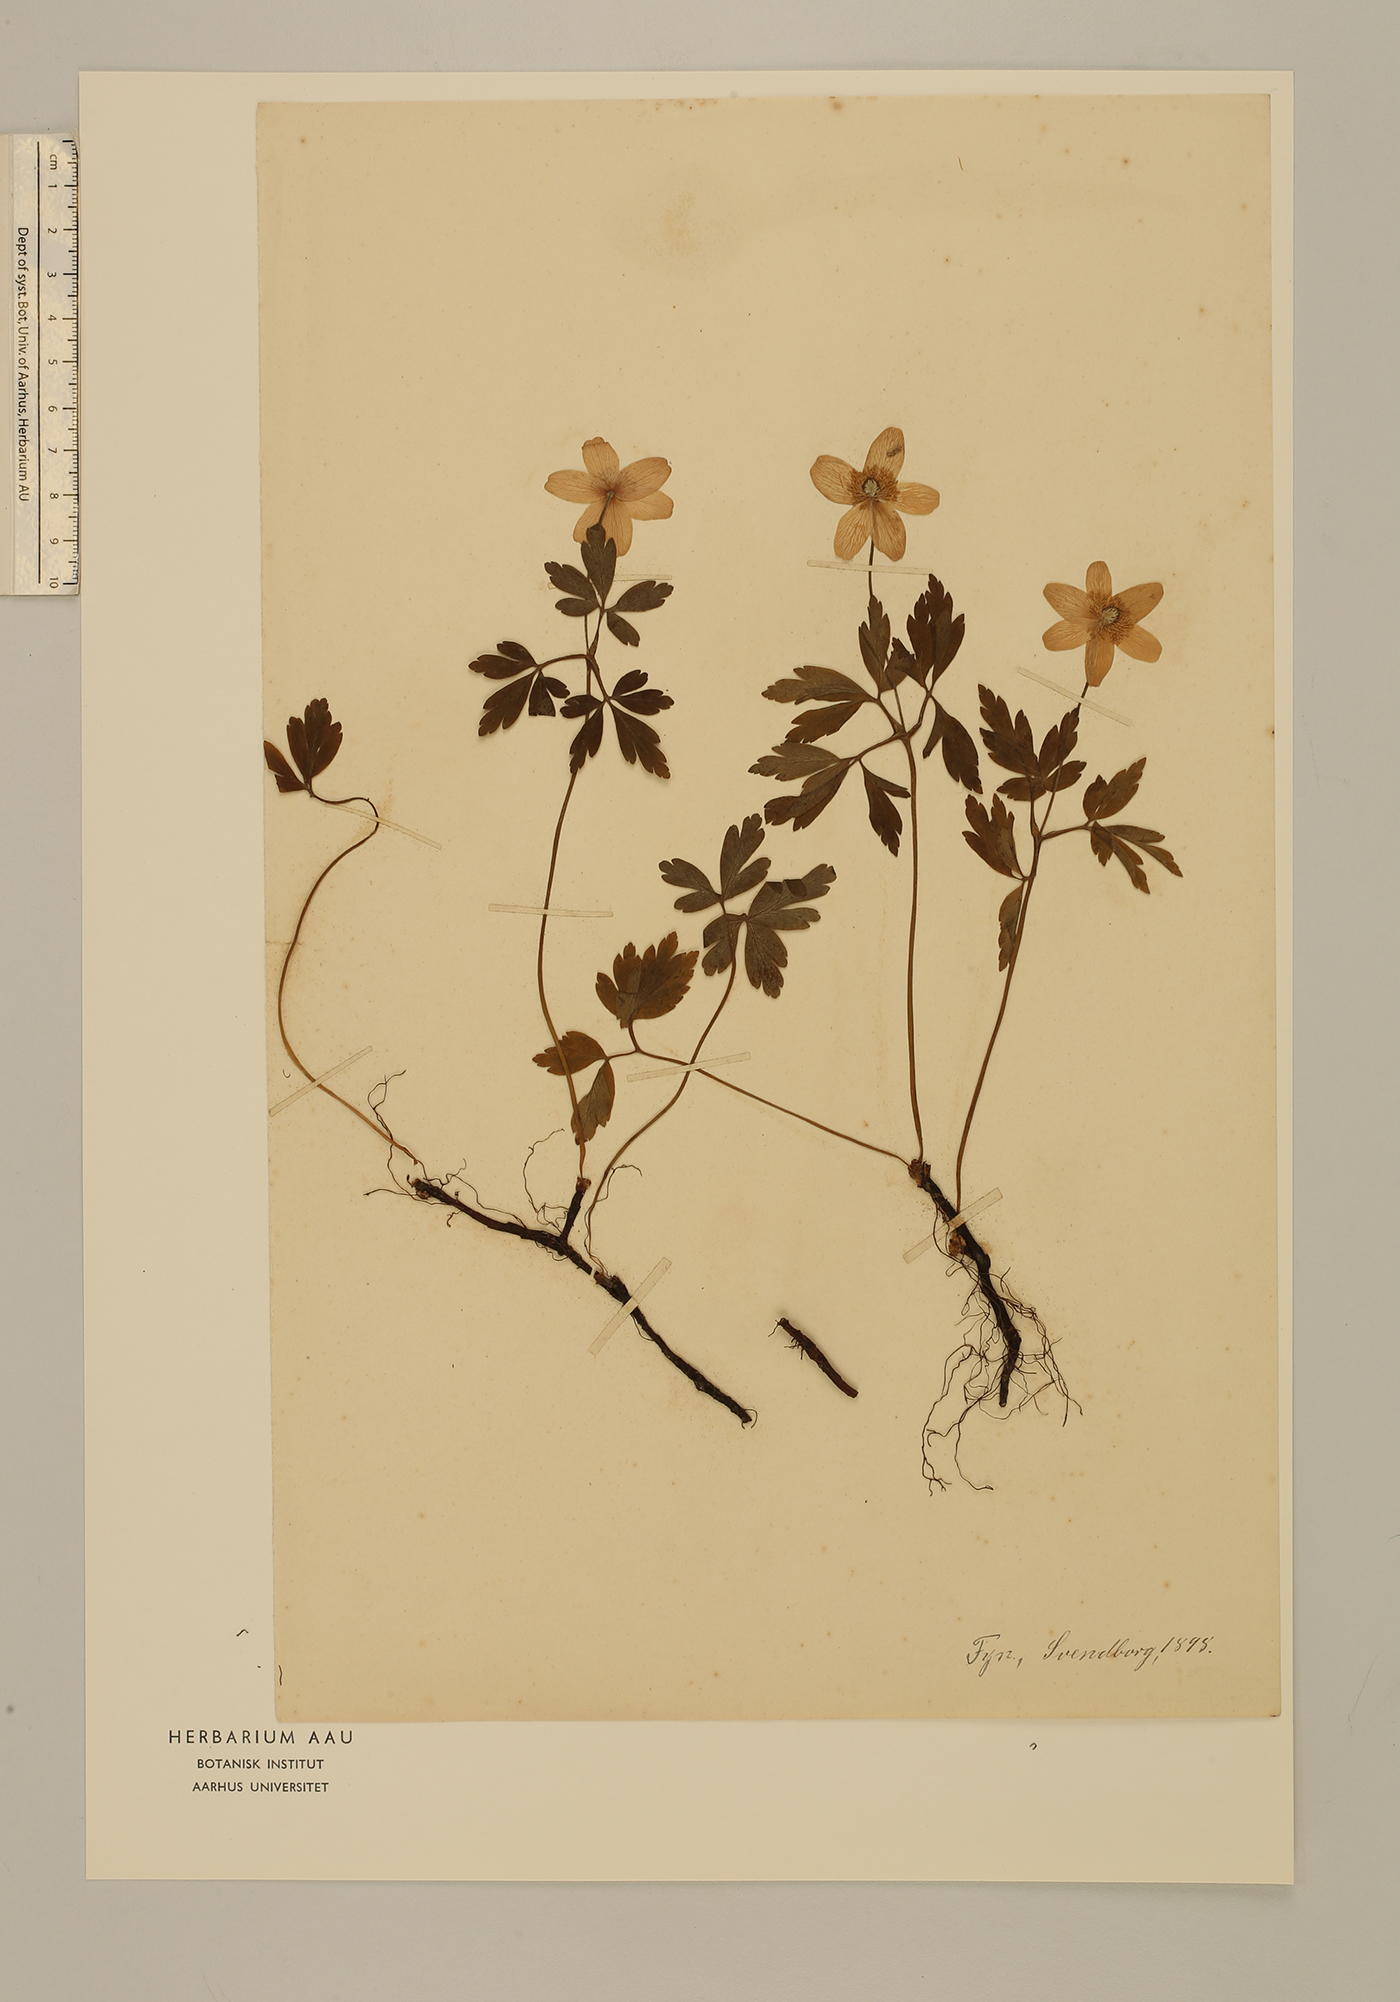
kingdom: Plantae
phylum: Tracheophyta
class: Magnoliopsida
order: Ranunculales
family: Ranunculaceae
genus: Anemone
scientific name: Anemone nemorosa
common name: Wood anemone
